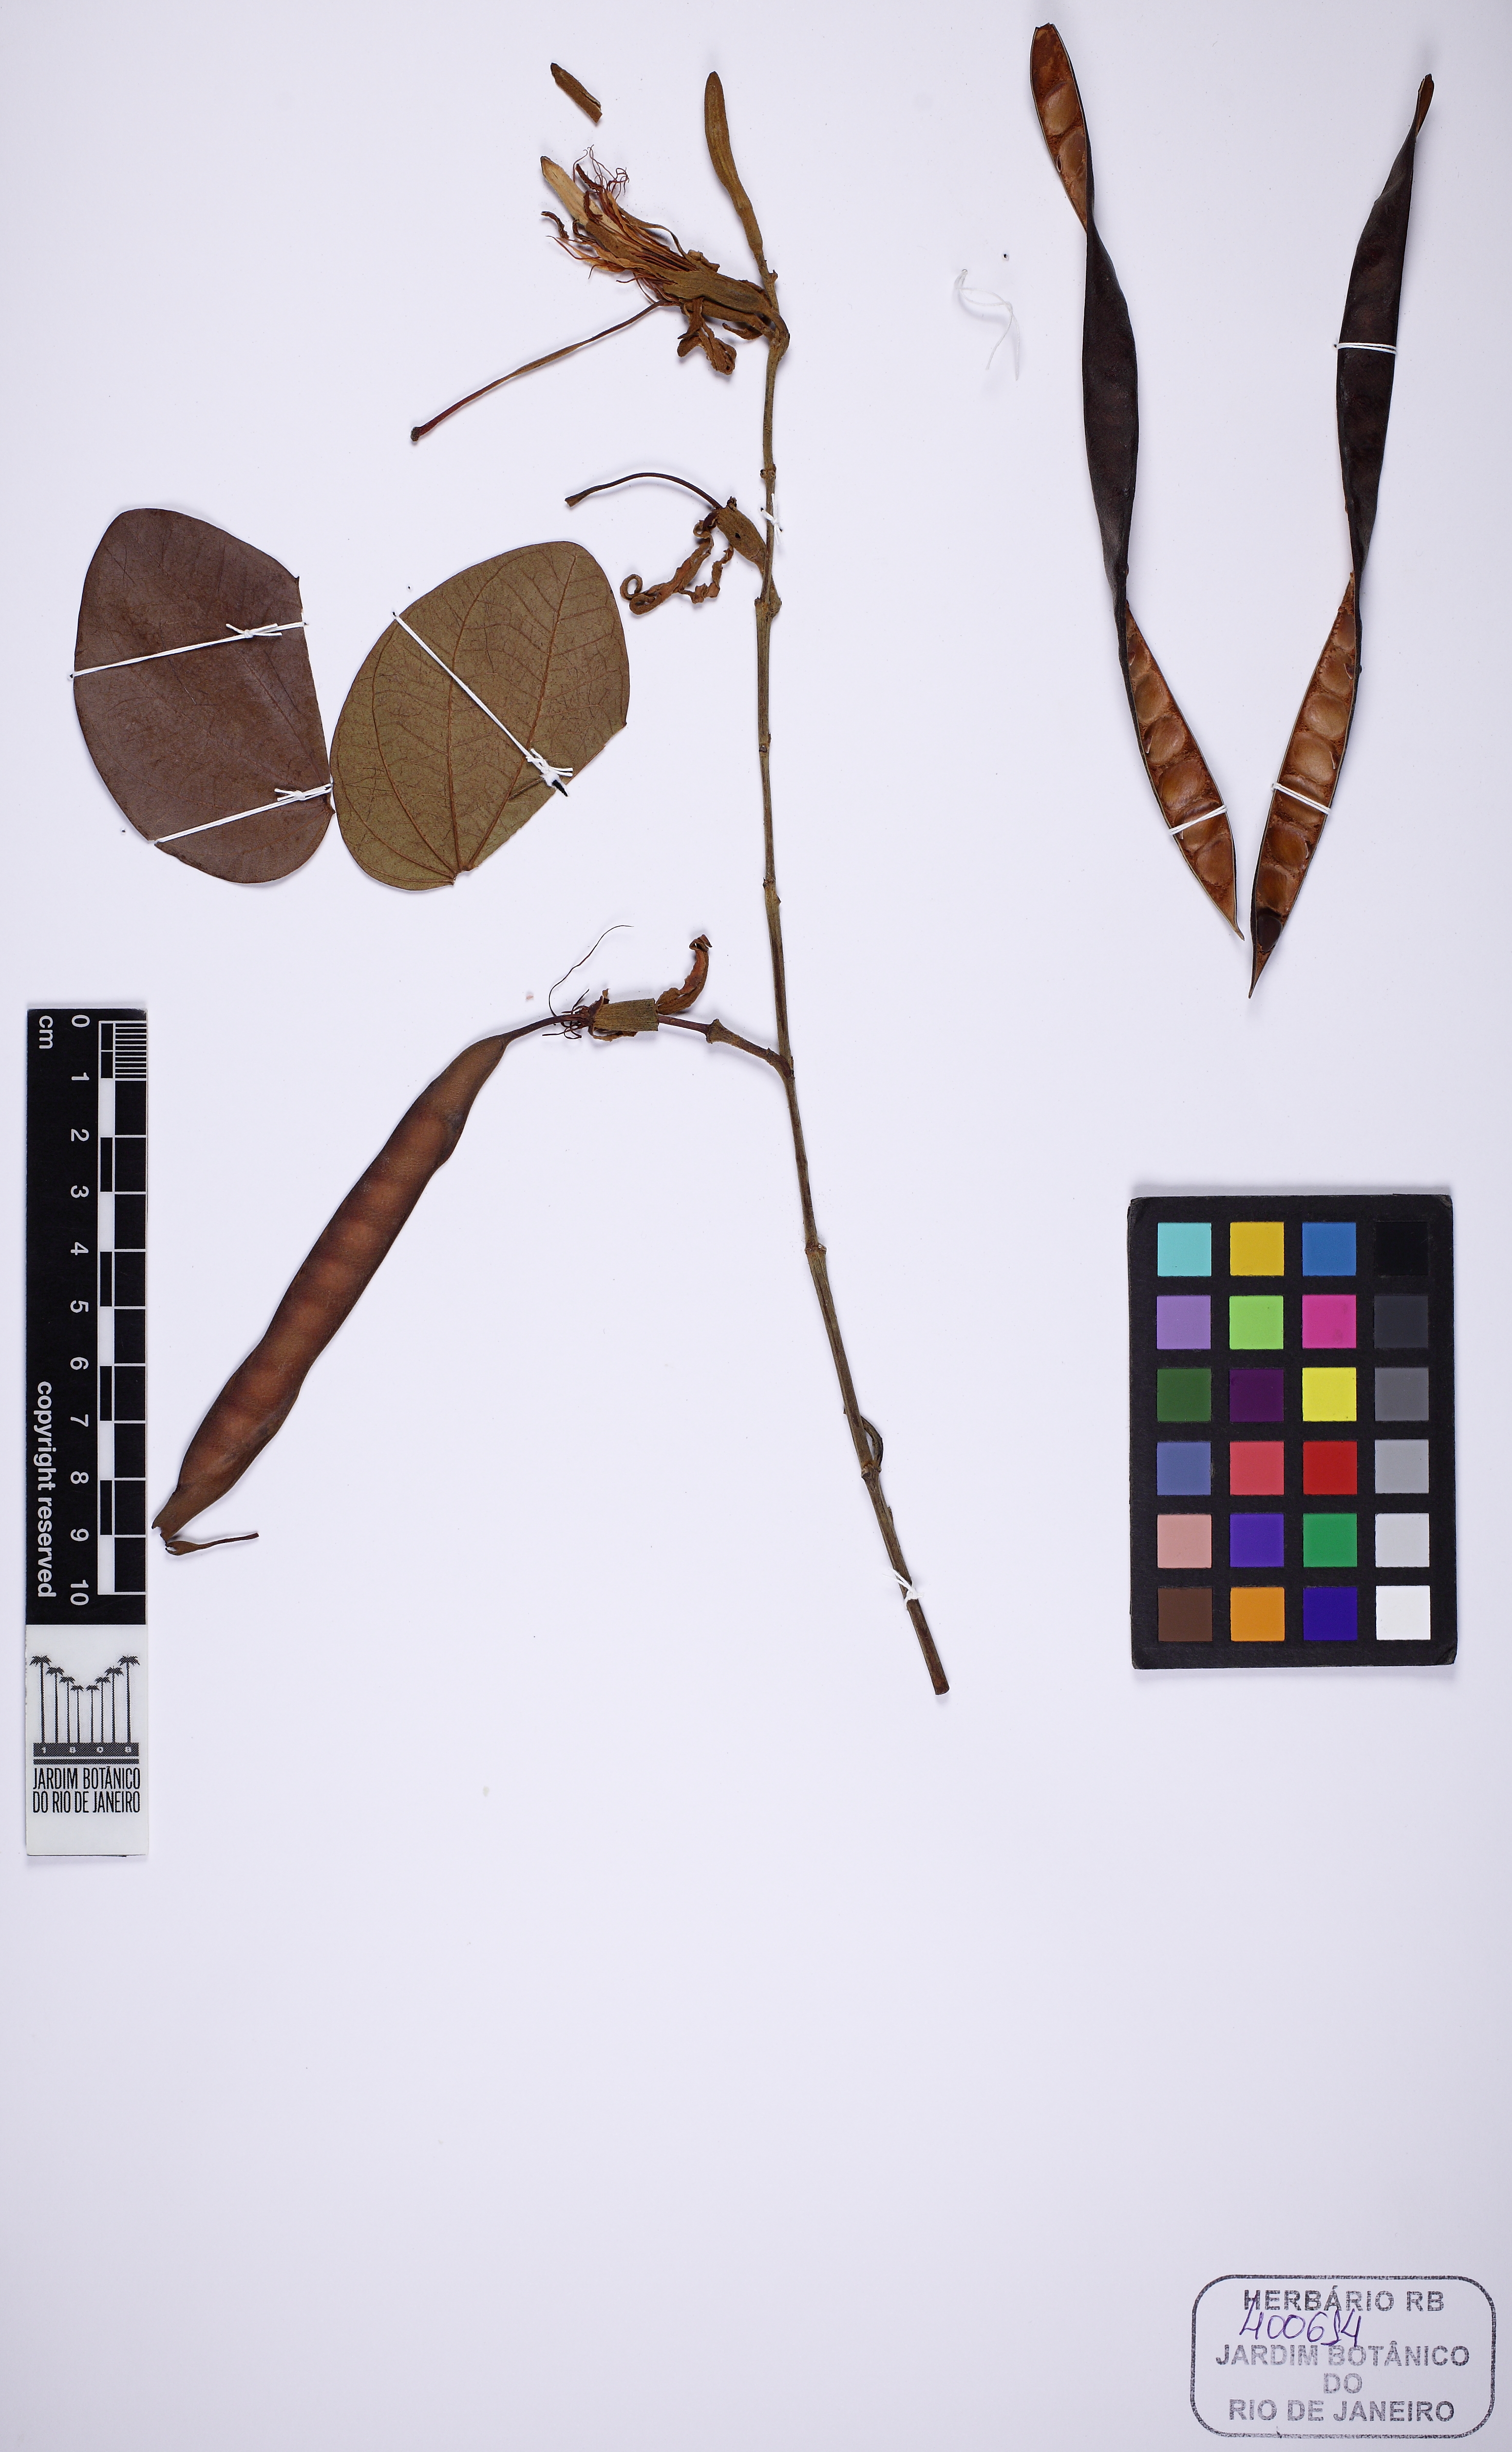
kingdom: Plantae
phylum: Tracheophyta
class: Magnoliopsida
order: Fabales
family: Fabaceae
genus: Bauhinia
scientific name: Bauhinia ungulata
